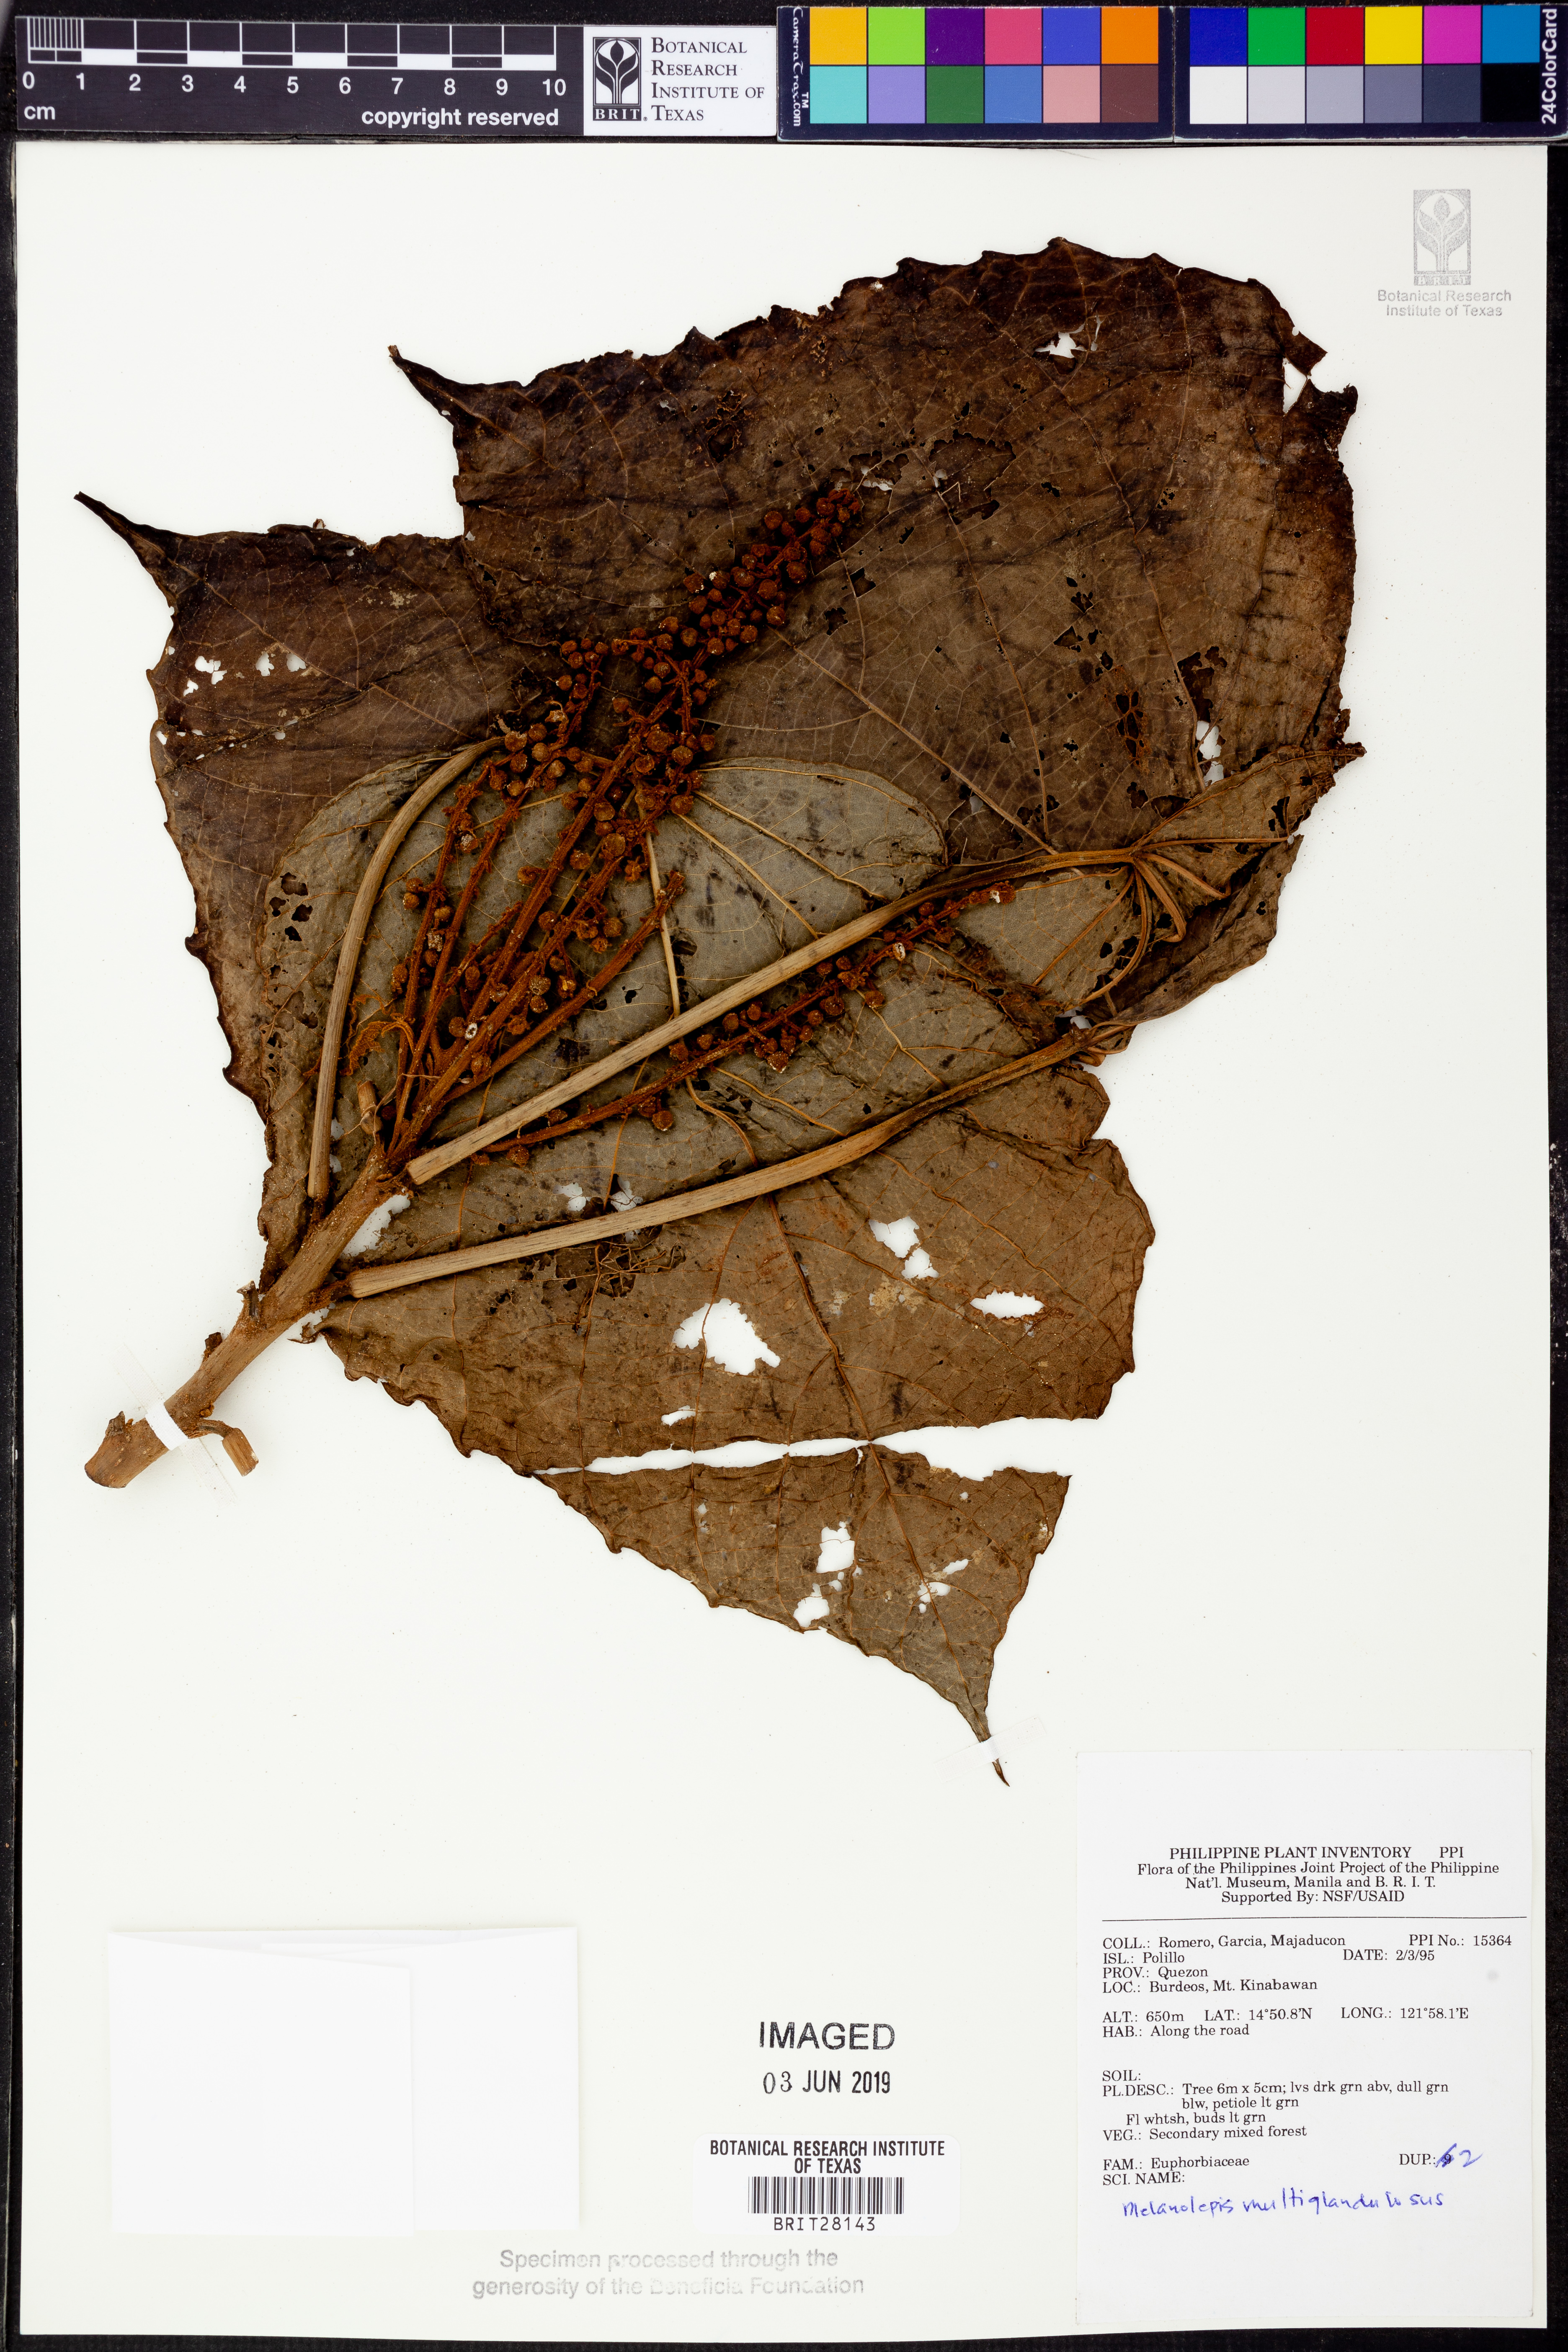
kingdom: Plantae
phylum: Tracheophyta
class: Magnoliopsida
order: Malpighiales
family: Euphorbiaceae
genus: Melanolepis
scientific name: Melanolepis multiglandulosa
